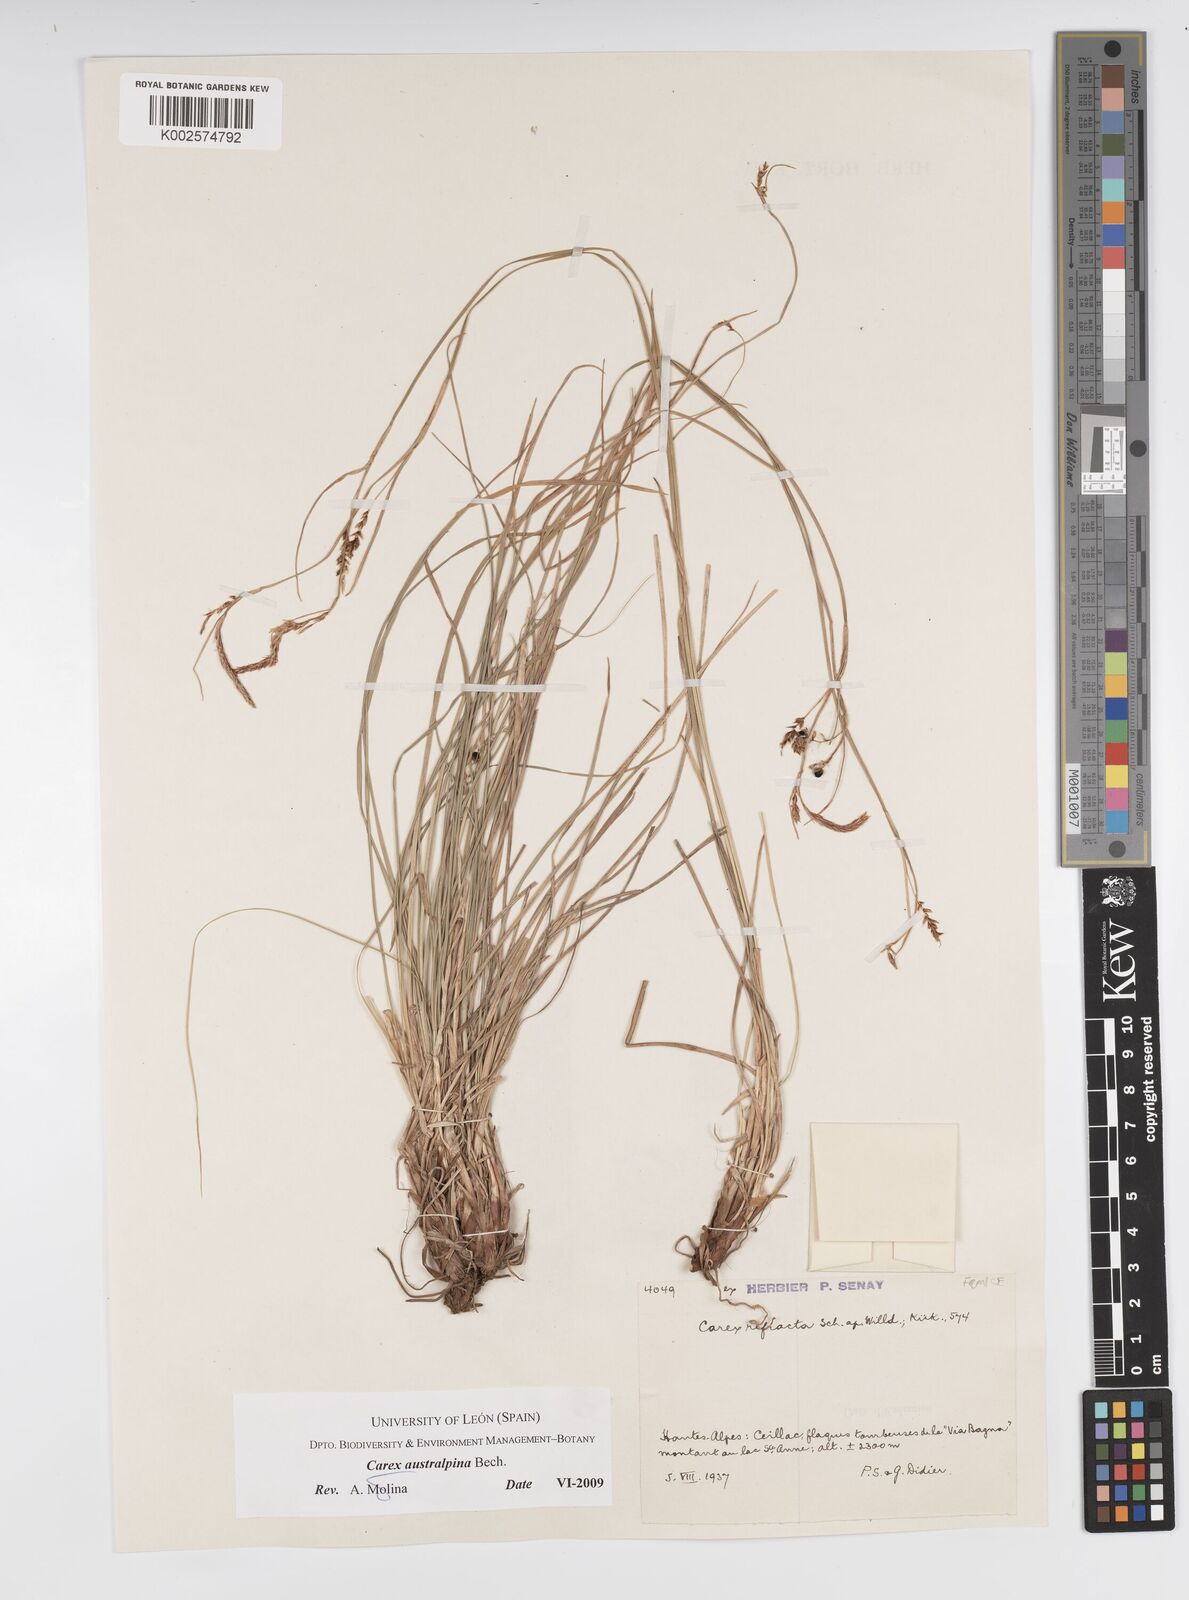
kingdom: Plantae
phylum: Tracheophyta
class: Liliopsida
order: Poales
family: Cyperaceae
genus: Carex
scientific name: Carex austroalpina
